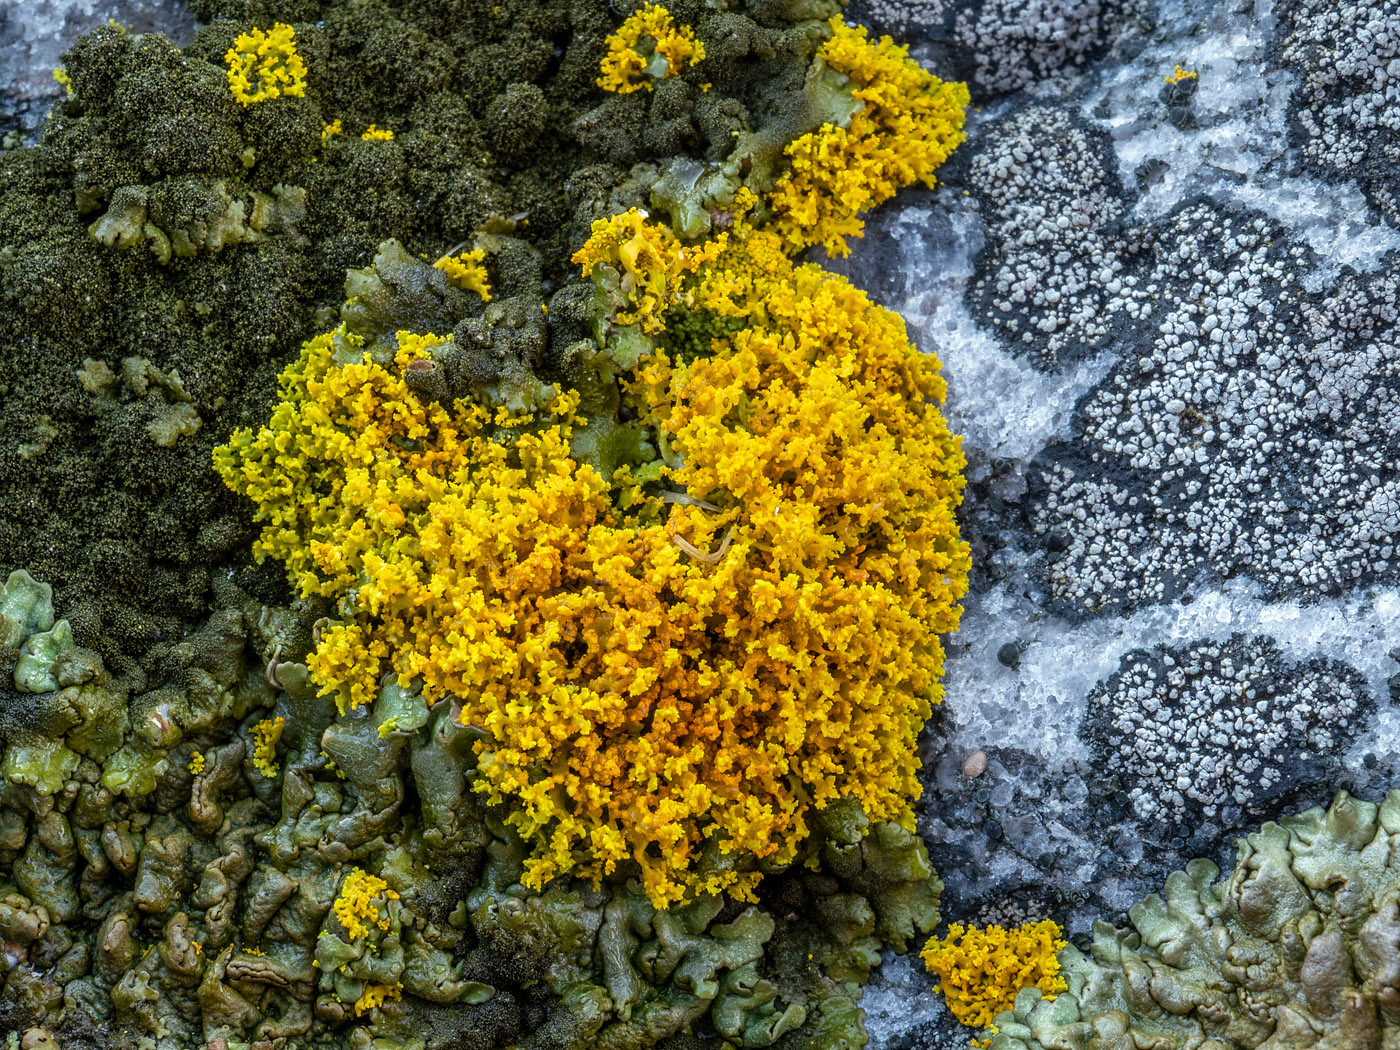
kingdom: Fungi
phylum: Ascomycota
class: Lecanoromycetes
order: Teloschistales
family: Teloschistaceae
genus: Polycauliona
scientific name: Polycauliona candelaria
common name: tue-orangelav
